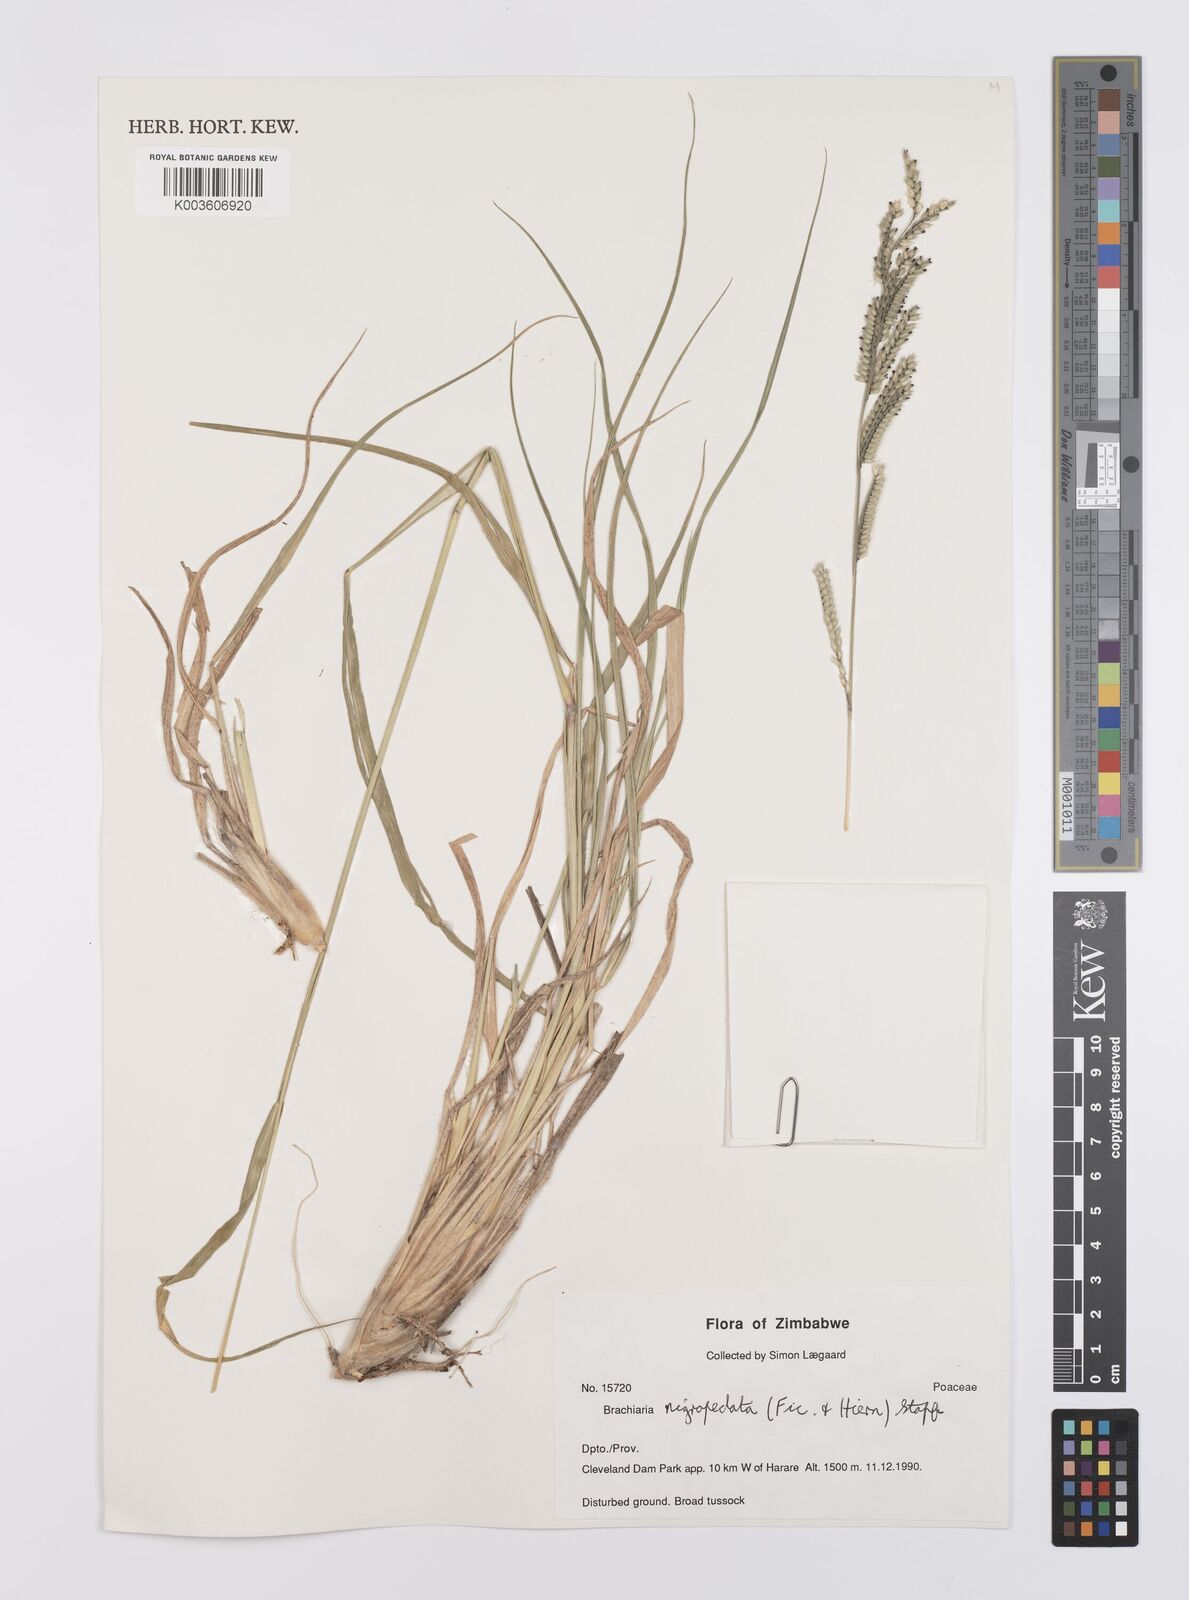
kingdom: Plantae
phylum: Tracheophyta
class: Liliopsida
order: Poales
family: Poaceae
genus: Urochloa
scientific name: Urochloa nigropedata
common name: Spotted signal grass
